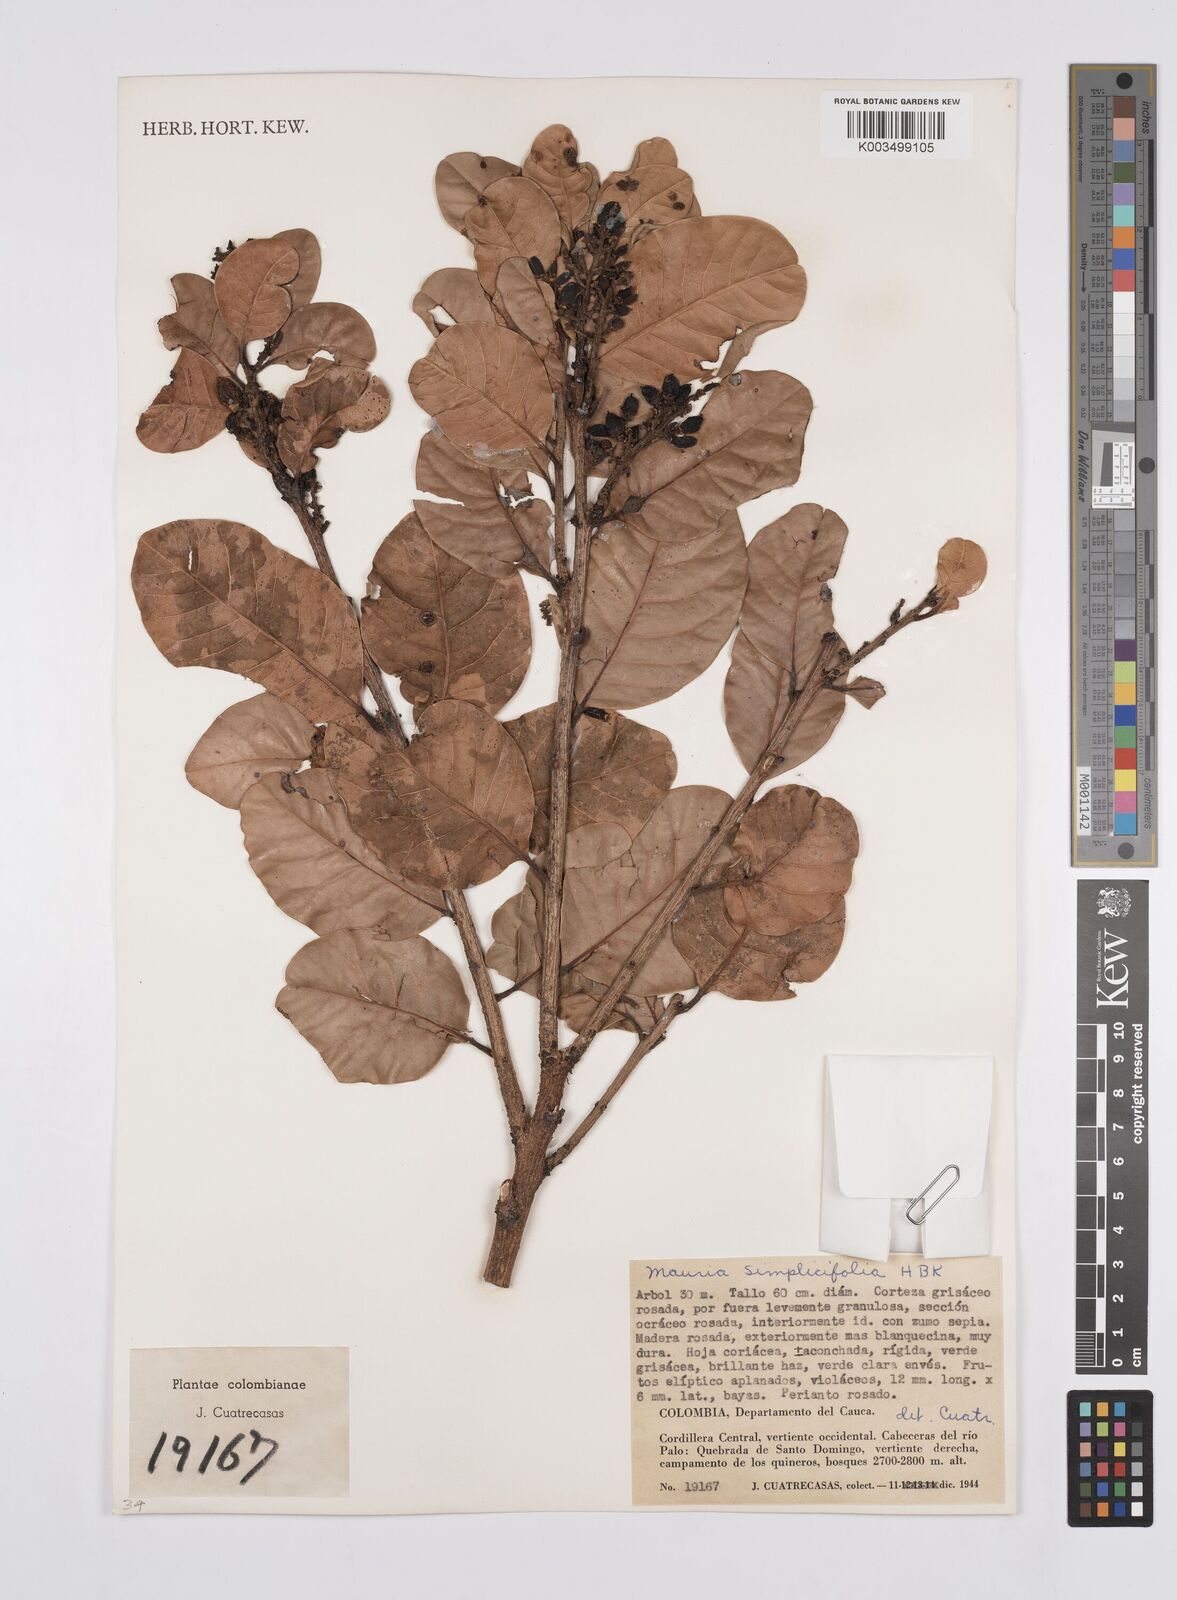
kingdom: Plantae
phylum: Tracheophyta
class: Magnoliopsida
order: Sapindales
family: Anacardiaceae
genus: Mauria
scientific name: Mauria simplicifolia
